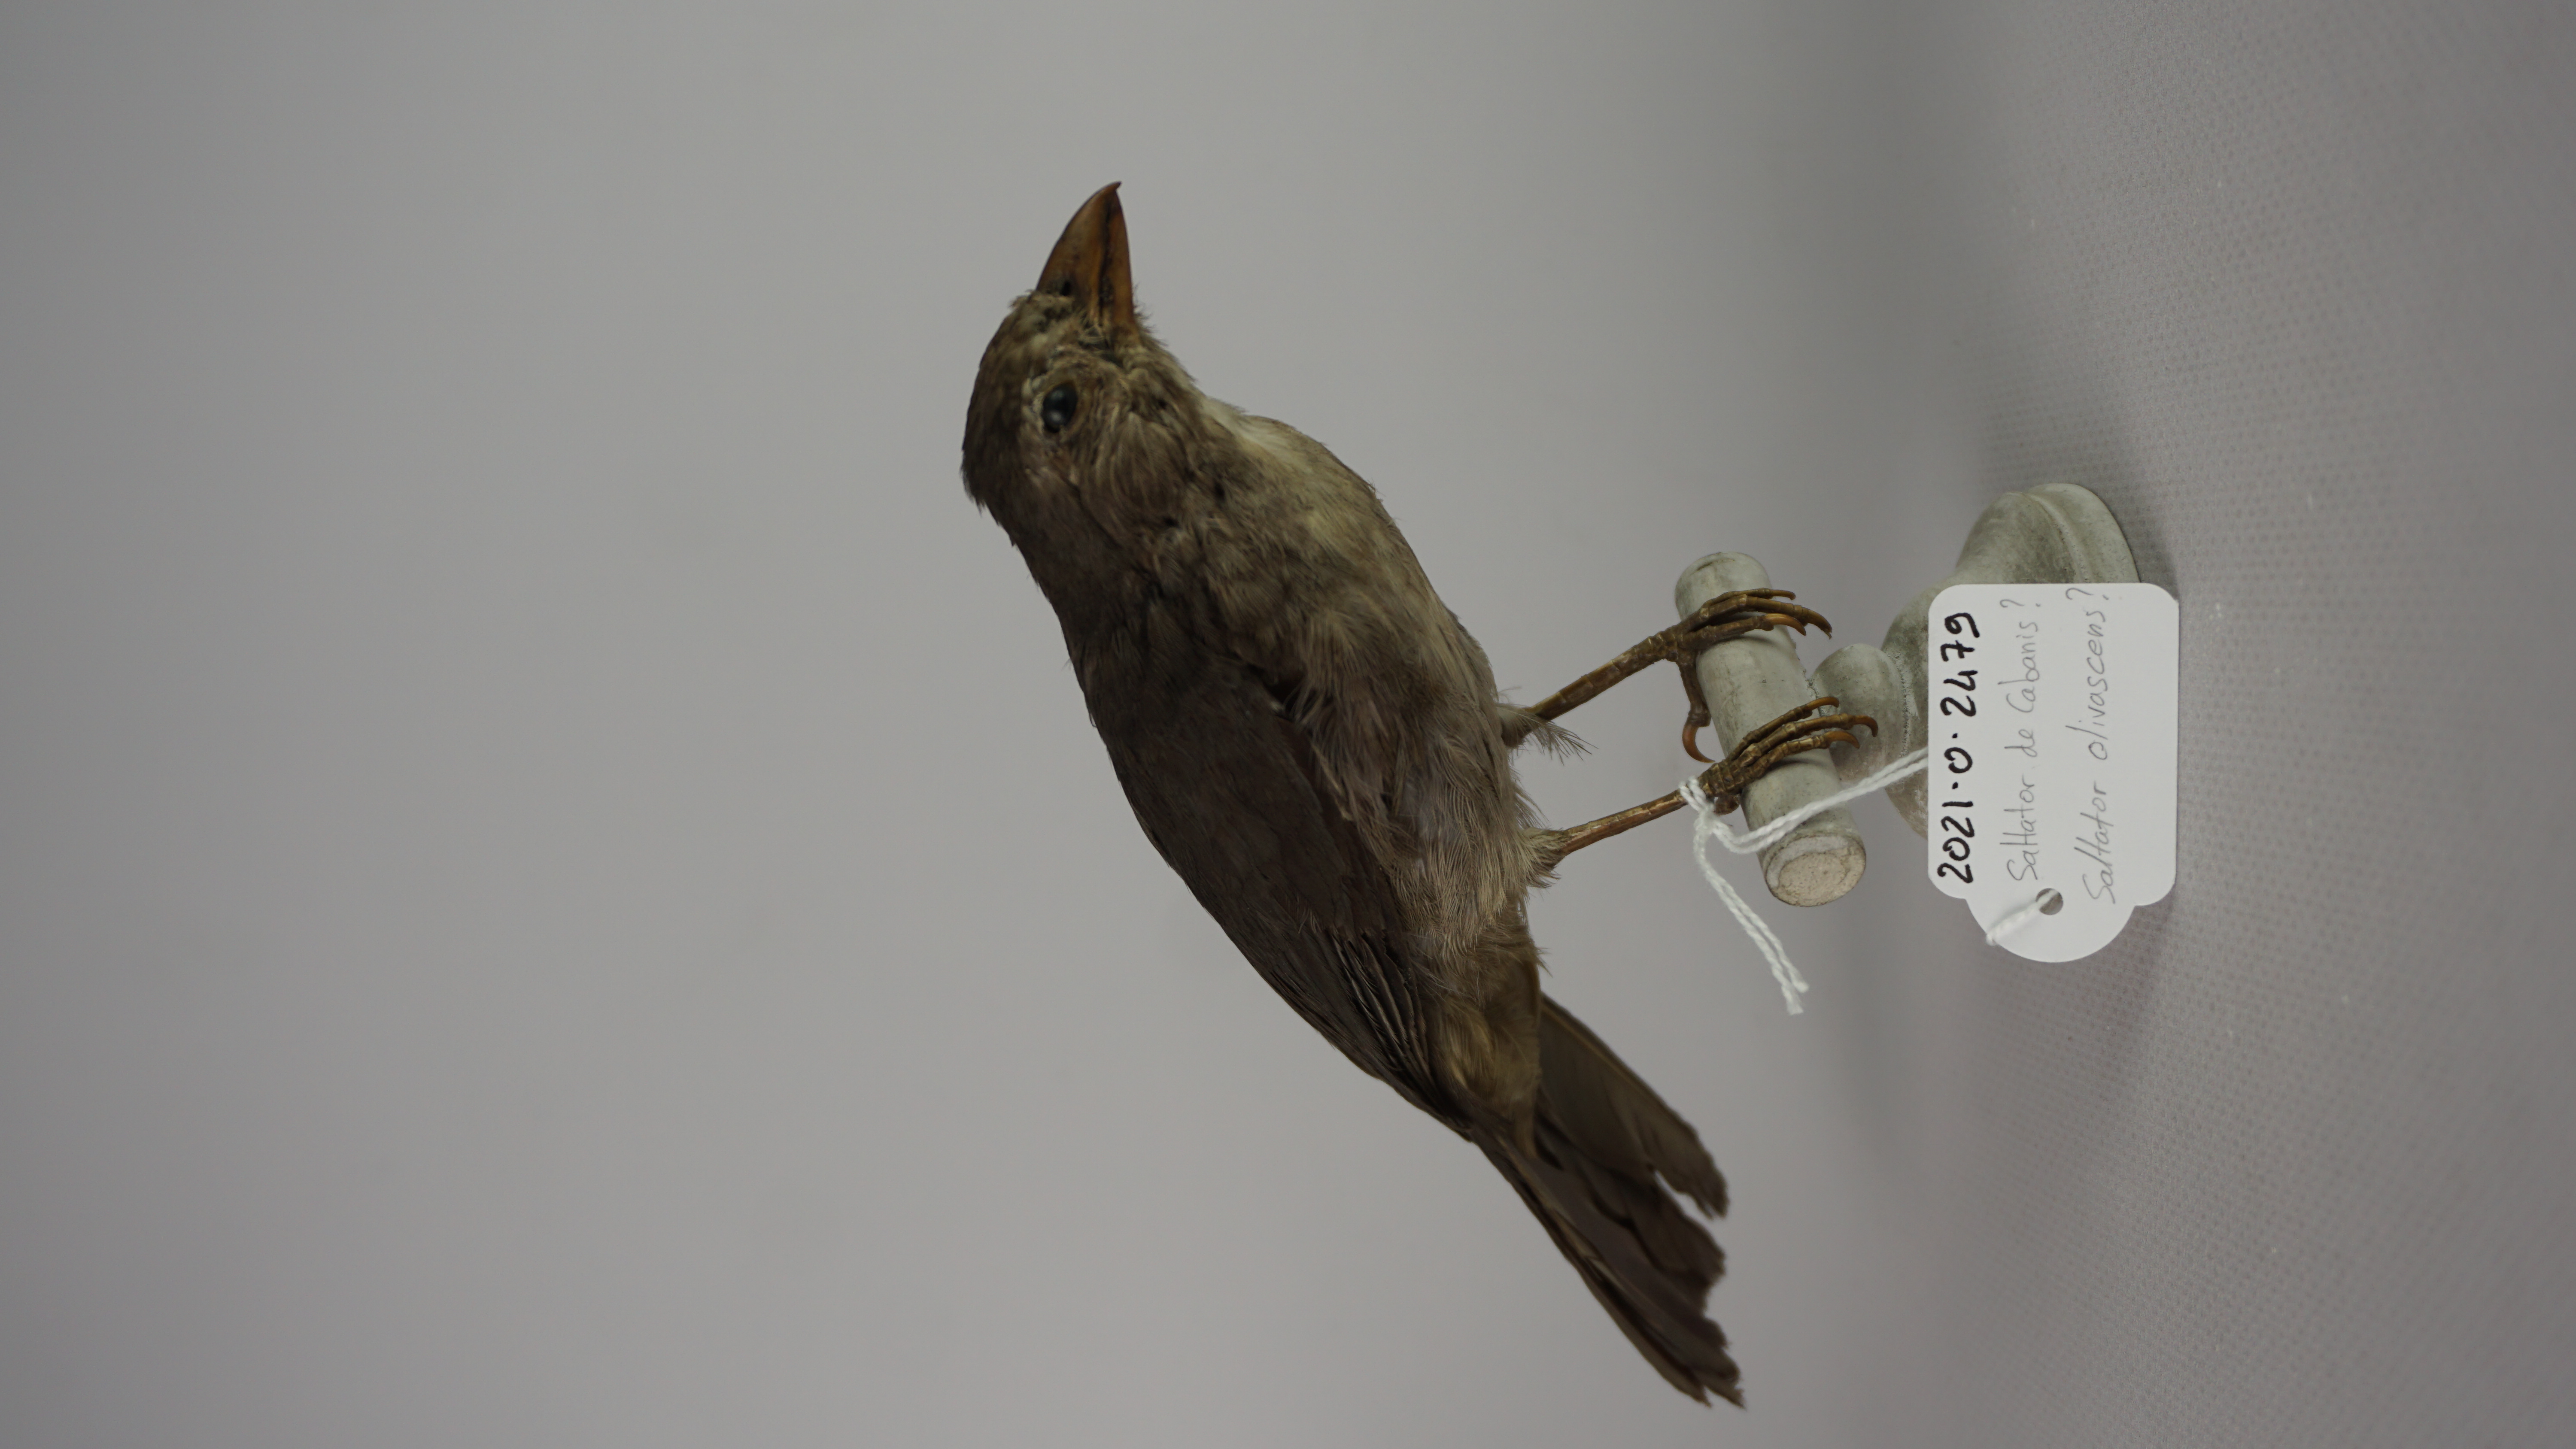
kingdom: Animalia
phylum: Chordata
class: Aves
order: Passeriformes
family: Thraupidae
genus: Saltator
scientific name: Saltator olivascens
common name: Caribbean grey saltator
